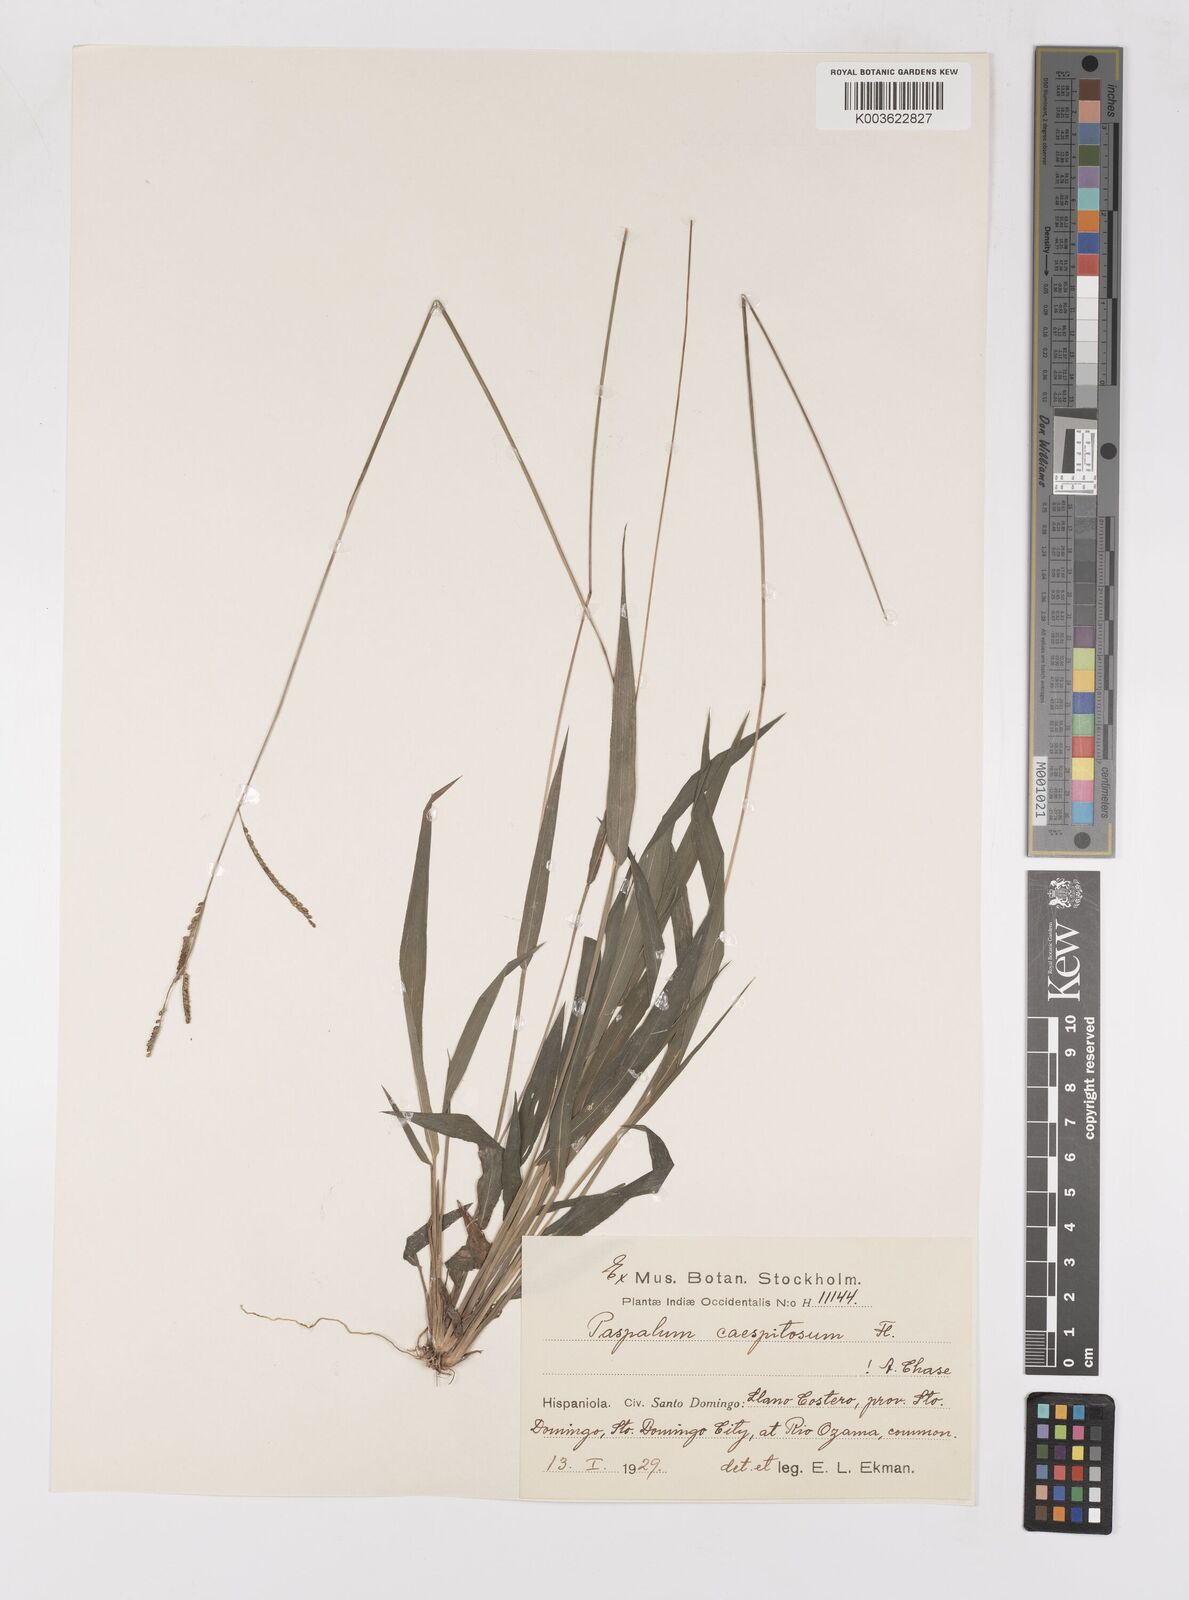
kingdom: Plantae
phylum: Tracheophyta
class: Liliopsida
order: Poales
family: Poaceae
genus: Paspalum
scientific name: Paspalum caespitosum
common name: Blue crowngrass
